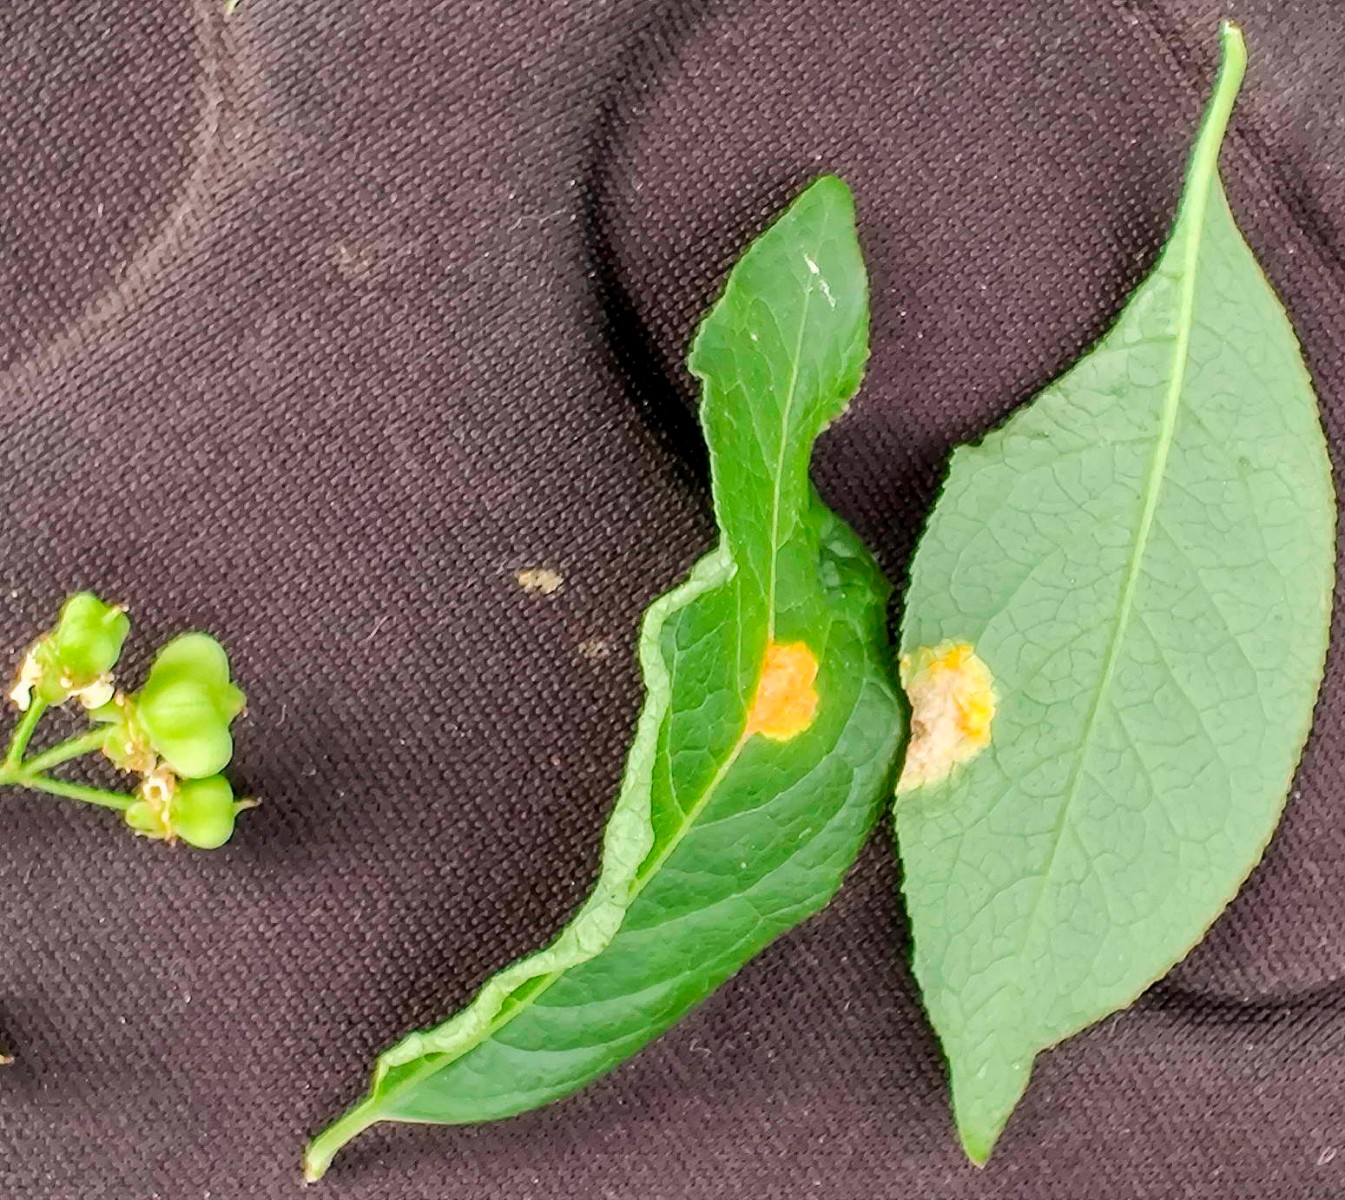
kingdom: Fungi
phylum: Basidiomycota
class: Pucciniomycetes
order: Pucciniales
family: Melampsoraceae
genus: Melampsora
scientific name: Melampsora epitea
